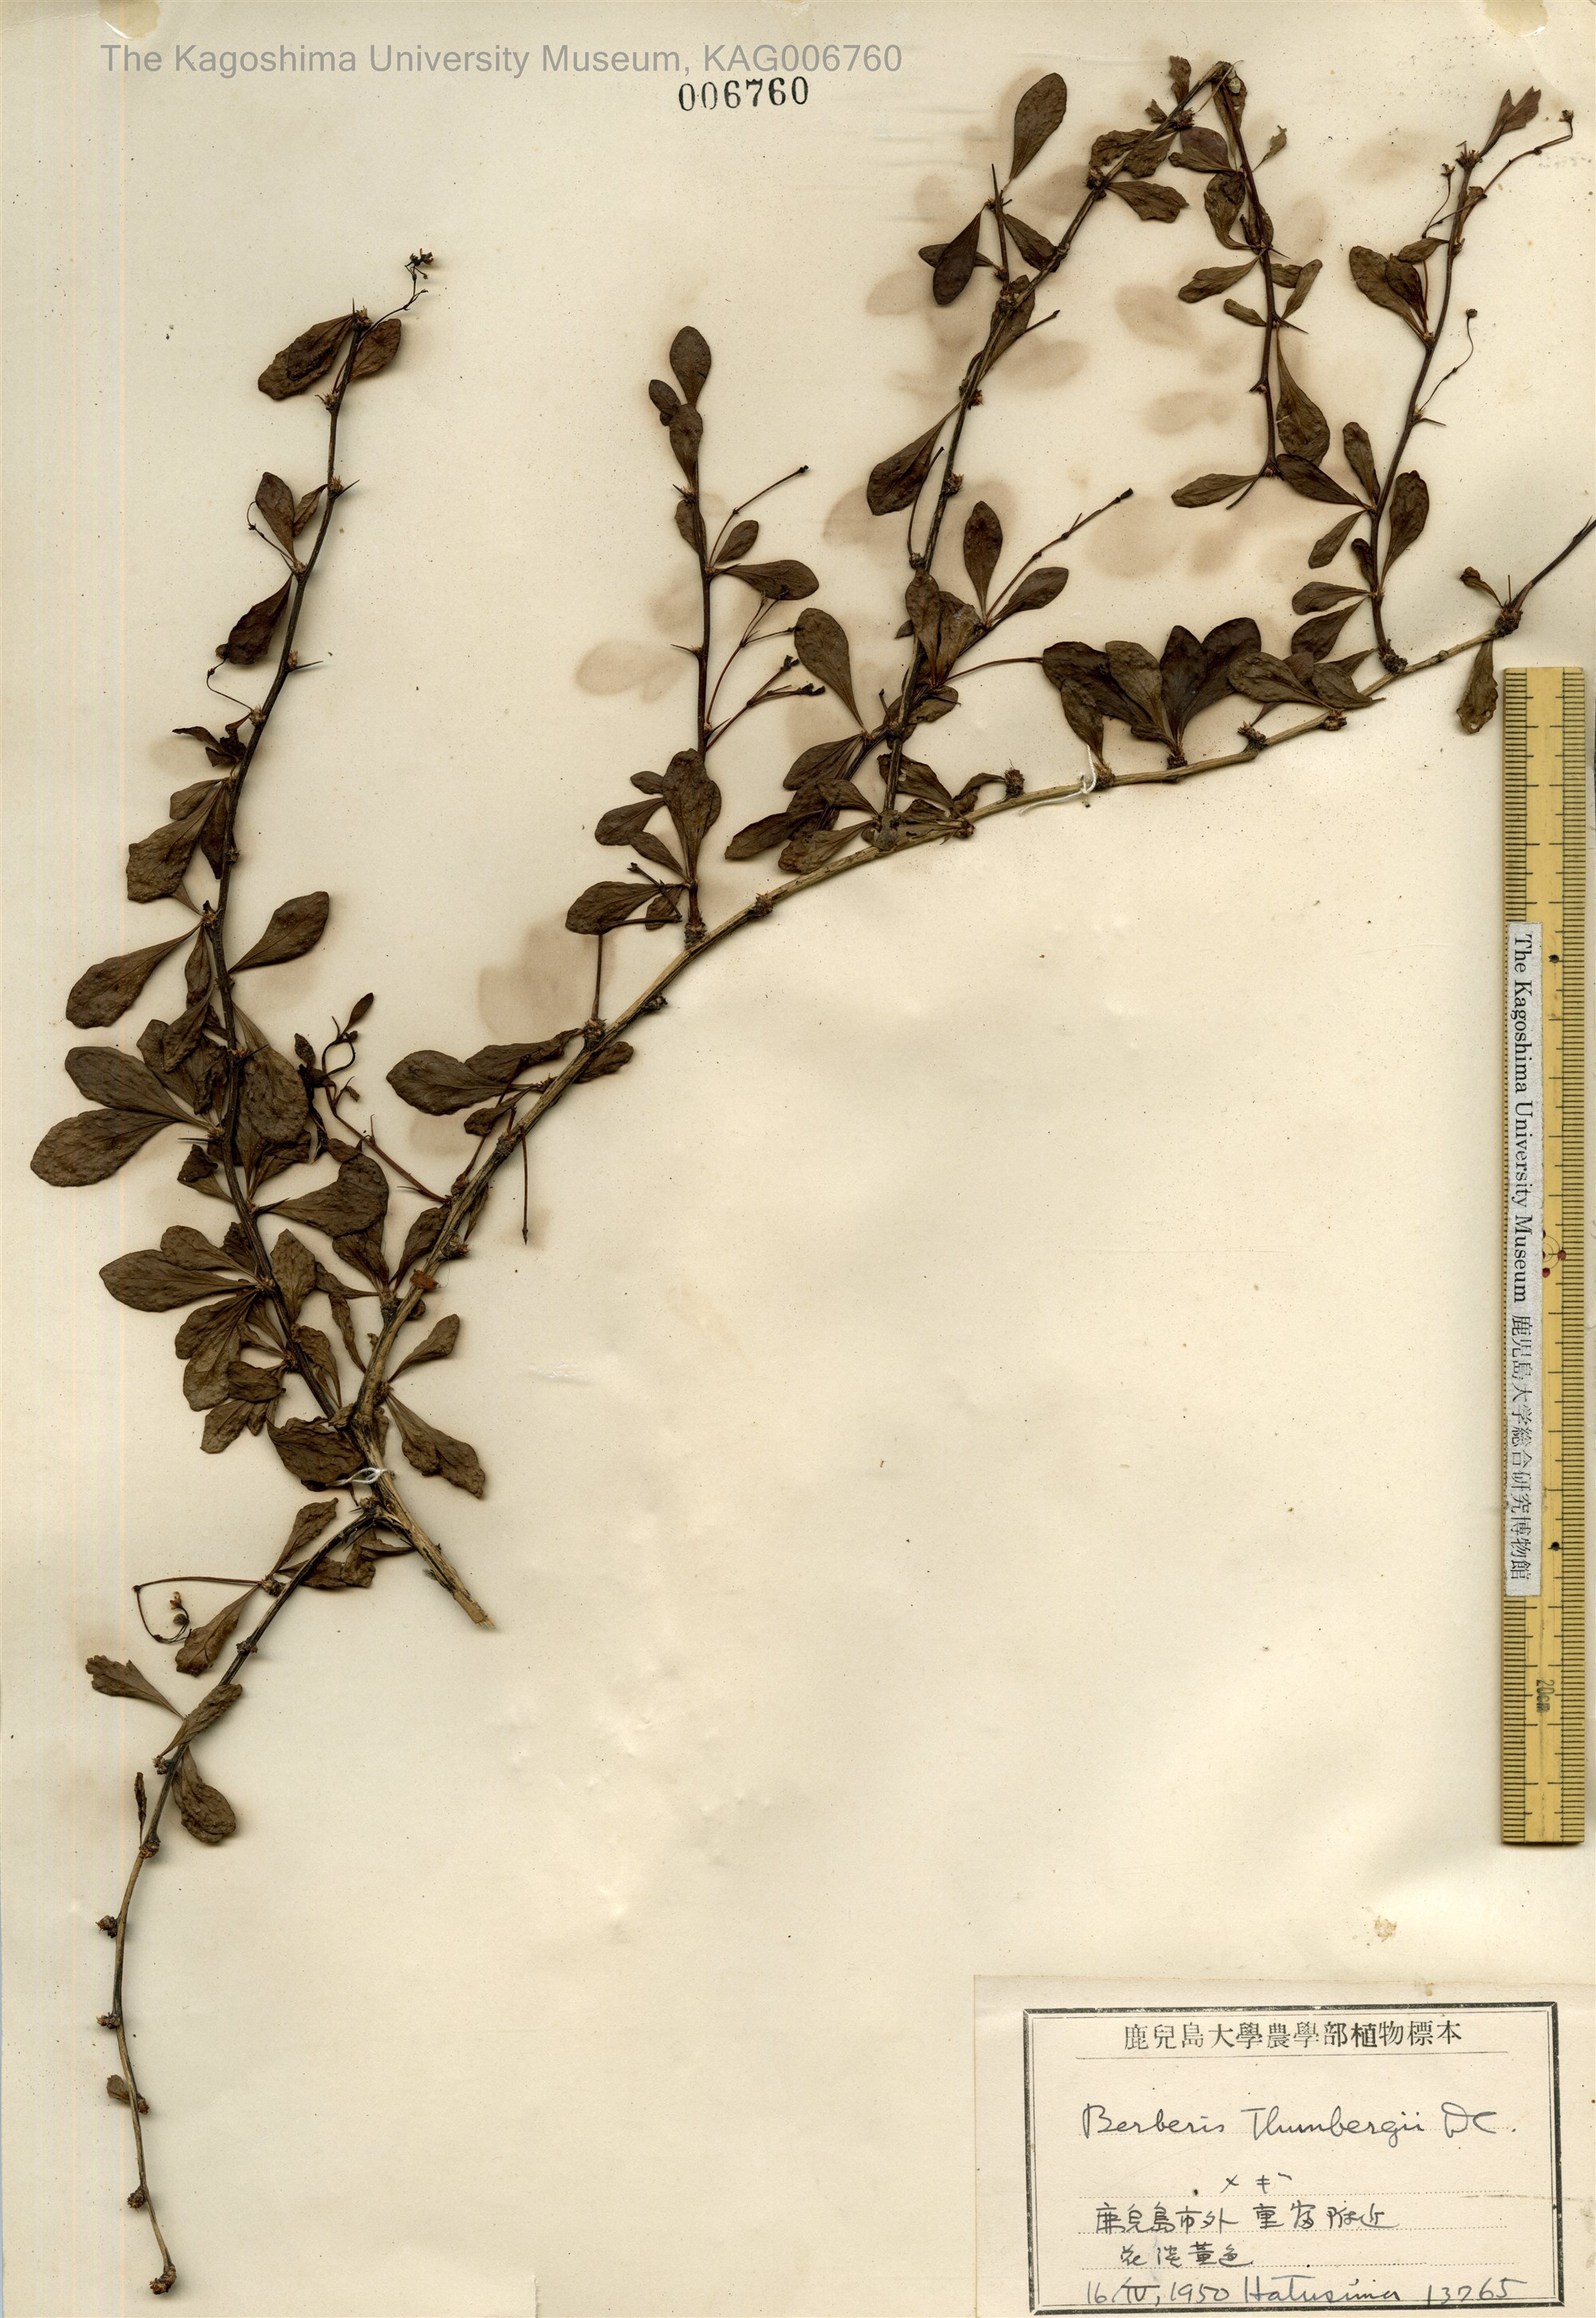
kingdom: Plantae
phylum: Tracheophyta
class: Magnoliopsida
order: Ranunculales
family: Berberidaceae
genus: Berberis
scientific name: Berberis thunbergii
